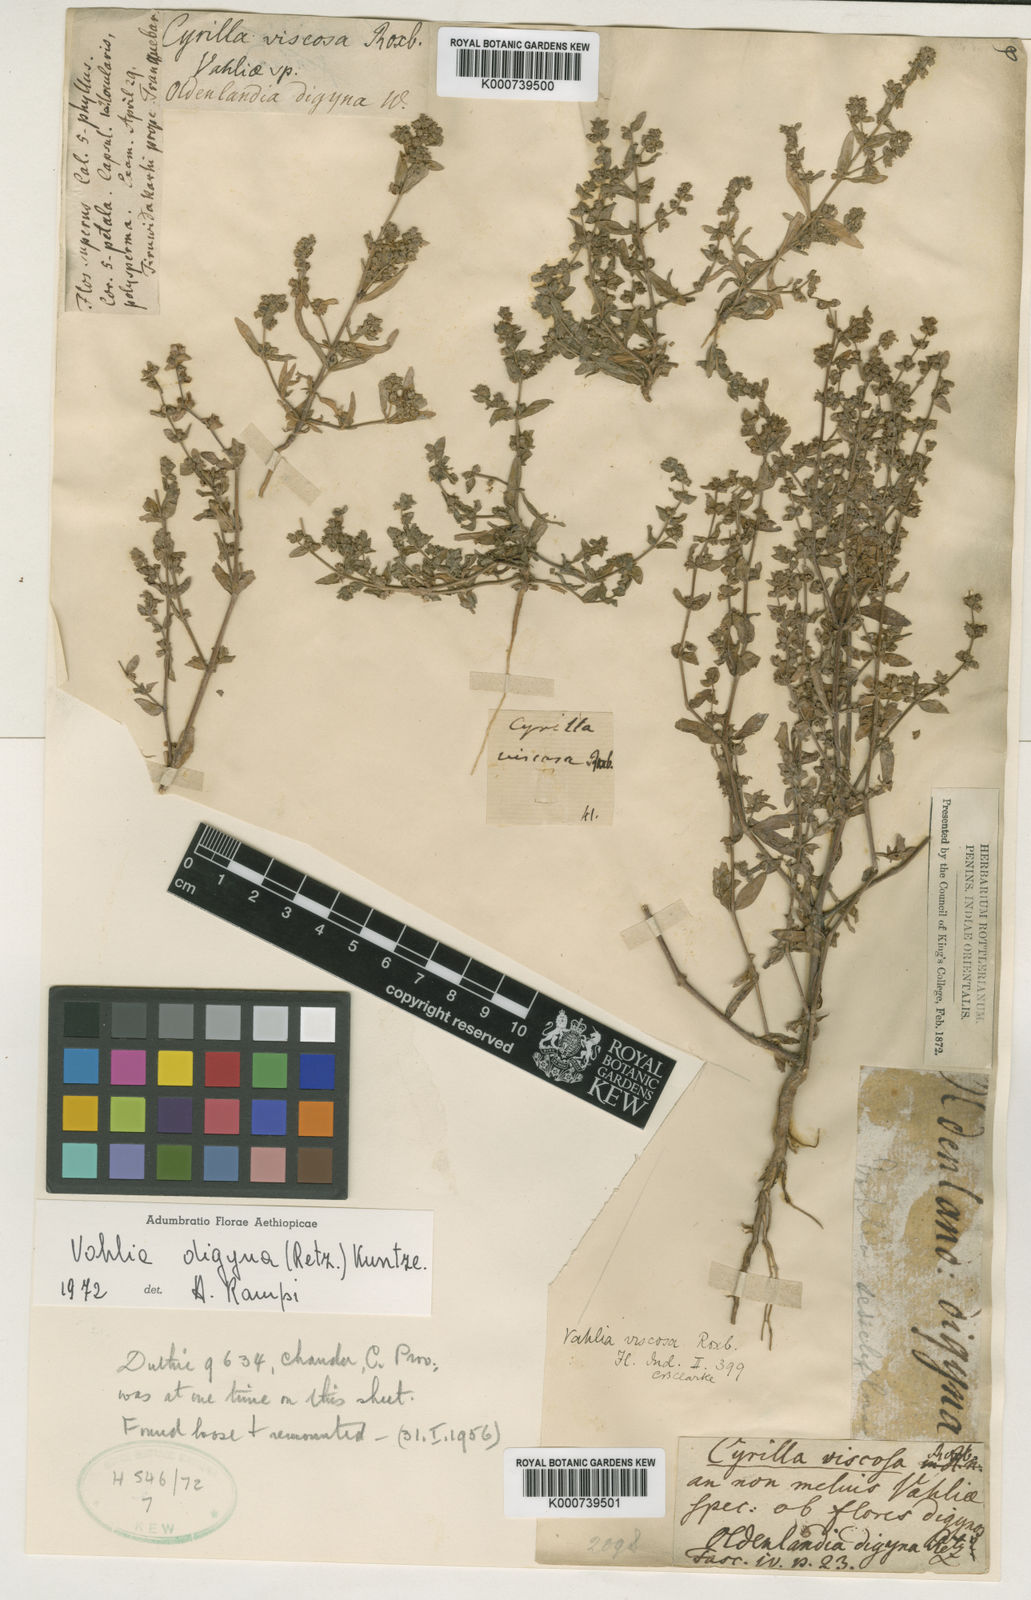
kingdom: Plantae
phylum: Tracheophyta
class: Magnoliopsida
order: Vahliales
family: Vahliaceae
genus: Vahlia
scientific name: Vahlia digyna
